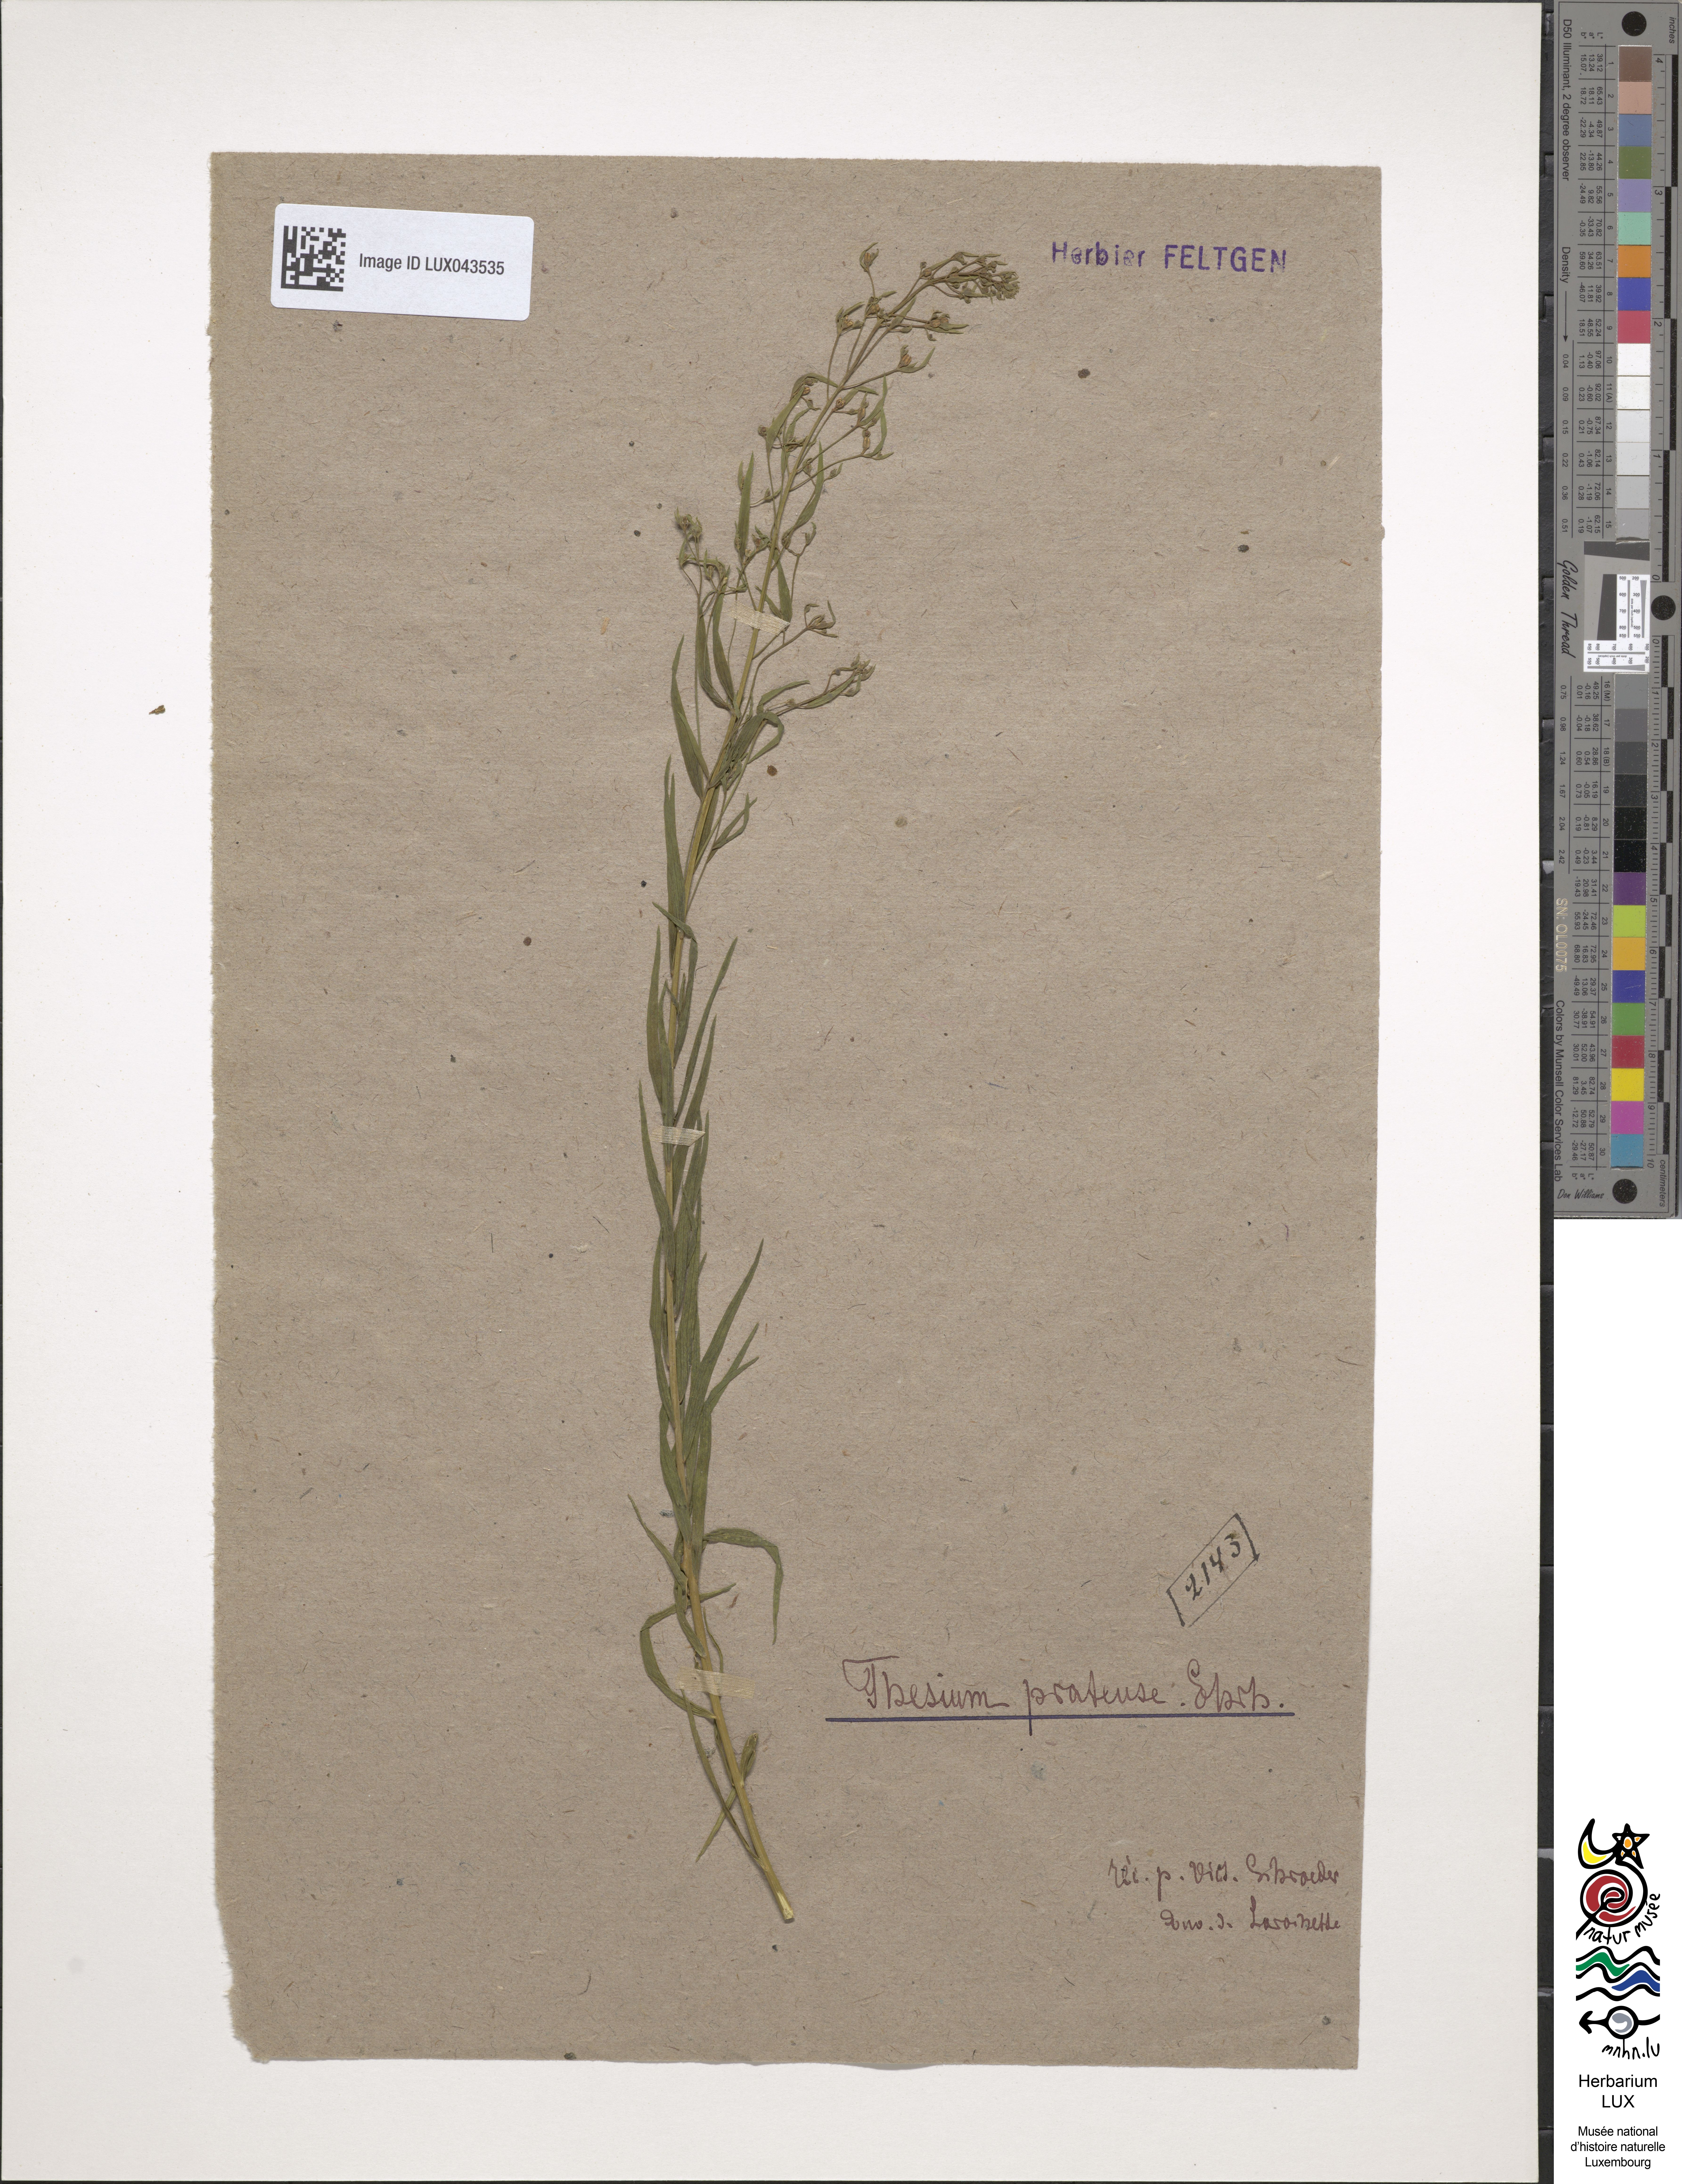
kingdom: Plantae
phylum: Tracheophyta
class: Magnoliopsida
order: Santalales
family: Thesiaceae
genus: Thesium
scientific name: Thesium pyrenaicum
